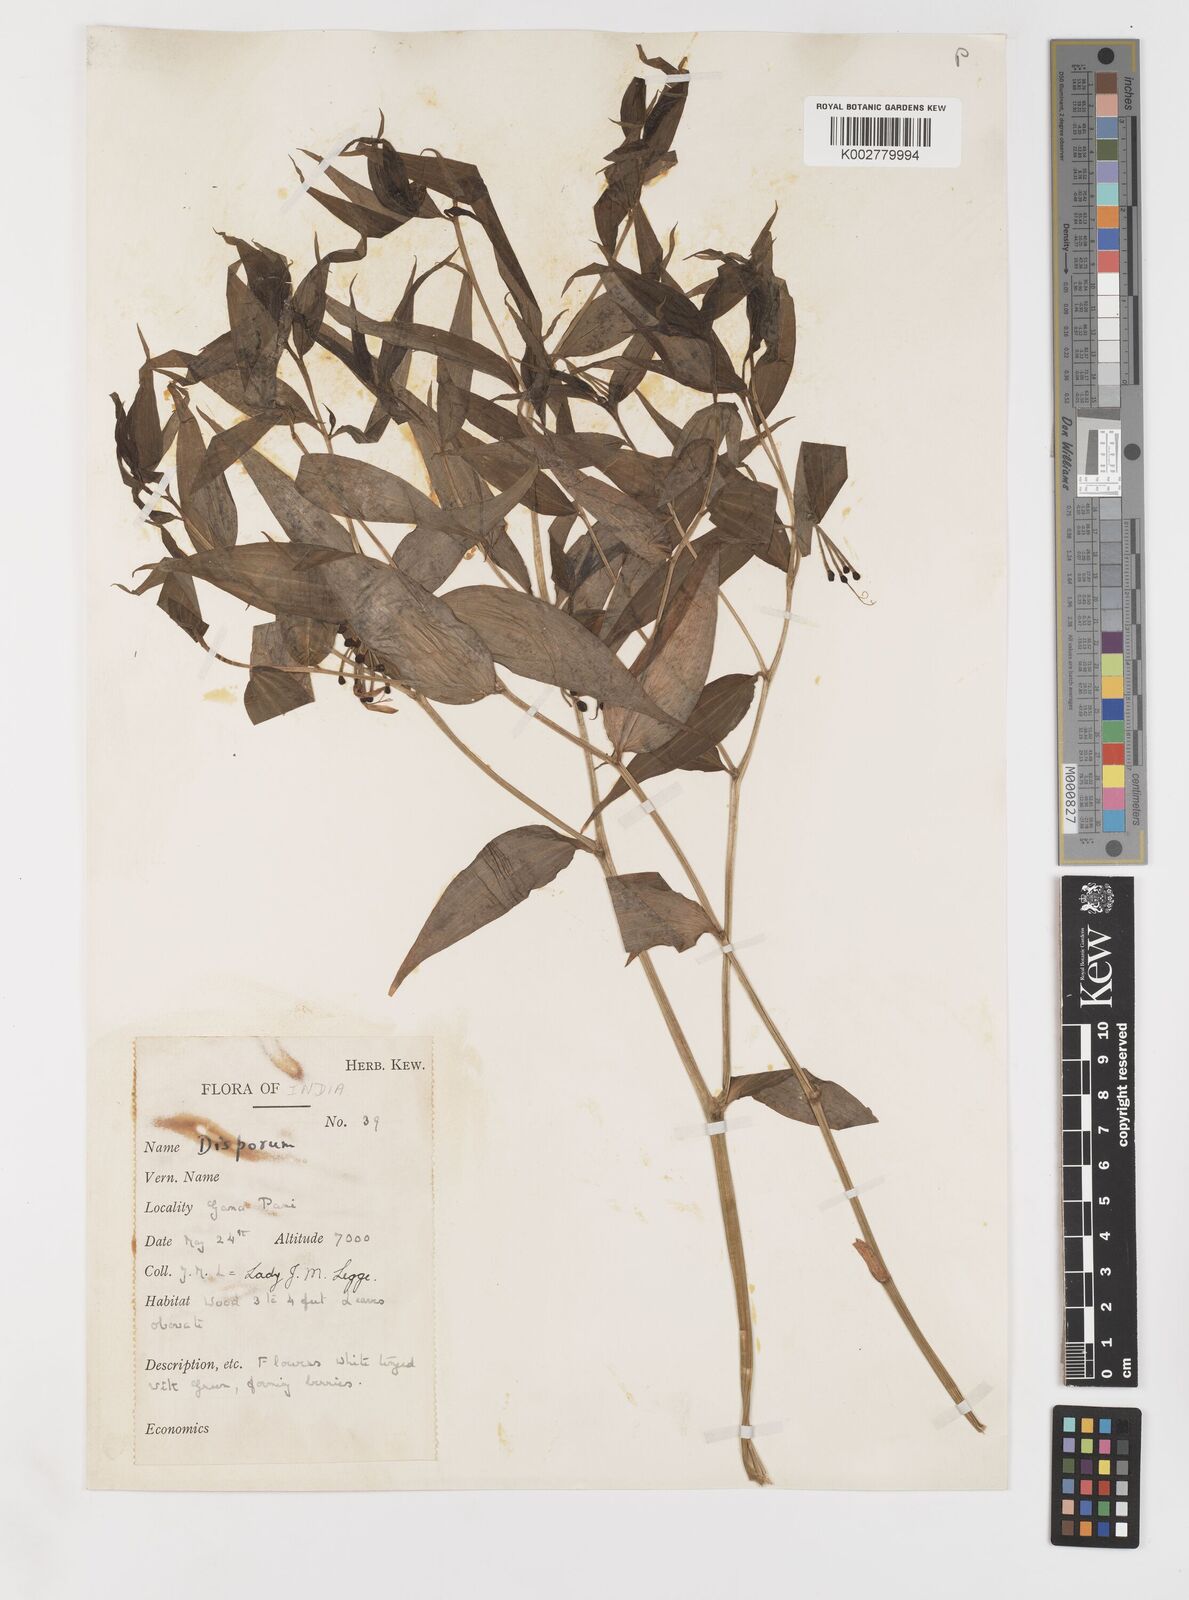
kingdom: Plantae
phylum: Tracheophyta
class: Liliopsida
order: Liliales
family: Colchicaceae
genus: Disporum
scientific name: Disporum
